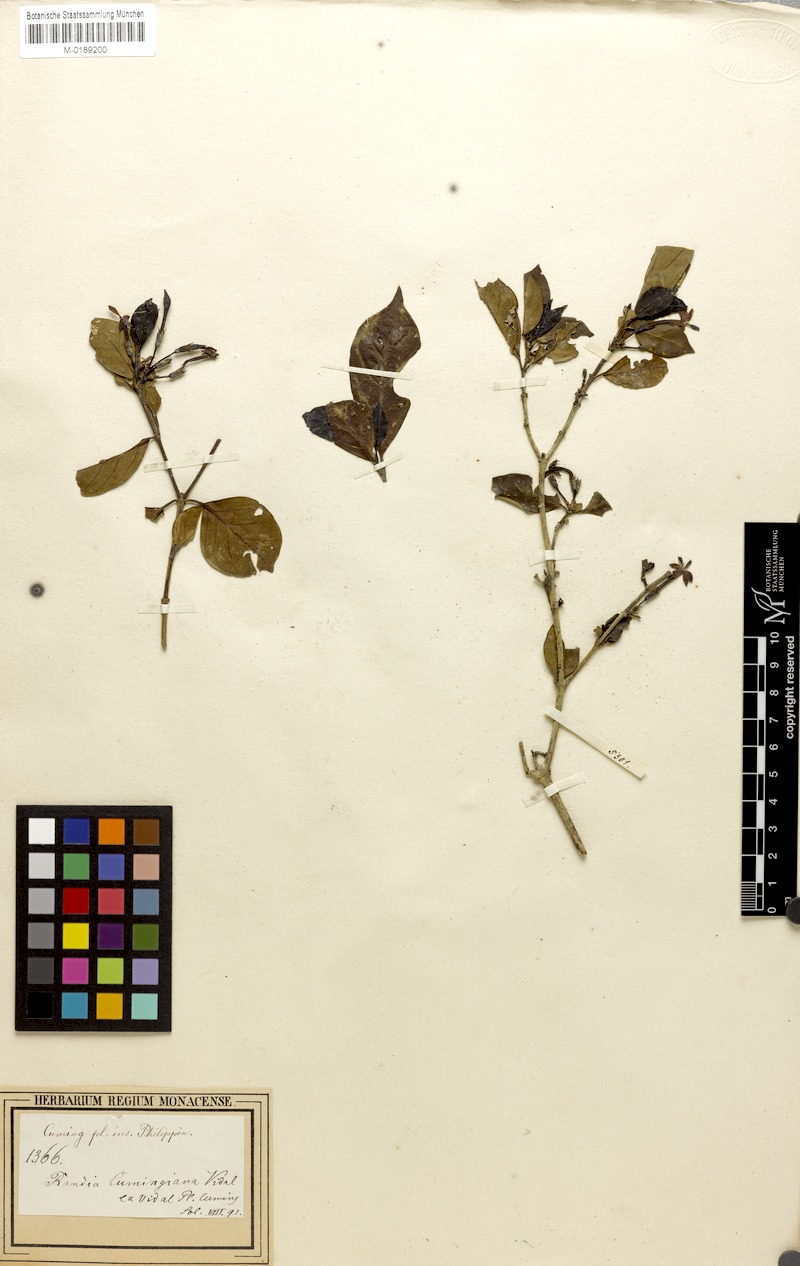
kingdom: Plantae
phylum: Tracheophyta
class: Magnoliopsida
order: Gentianales
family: Rubiaceae
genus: Benkara
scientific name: Benkara microcarpa
